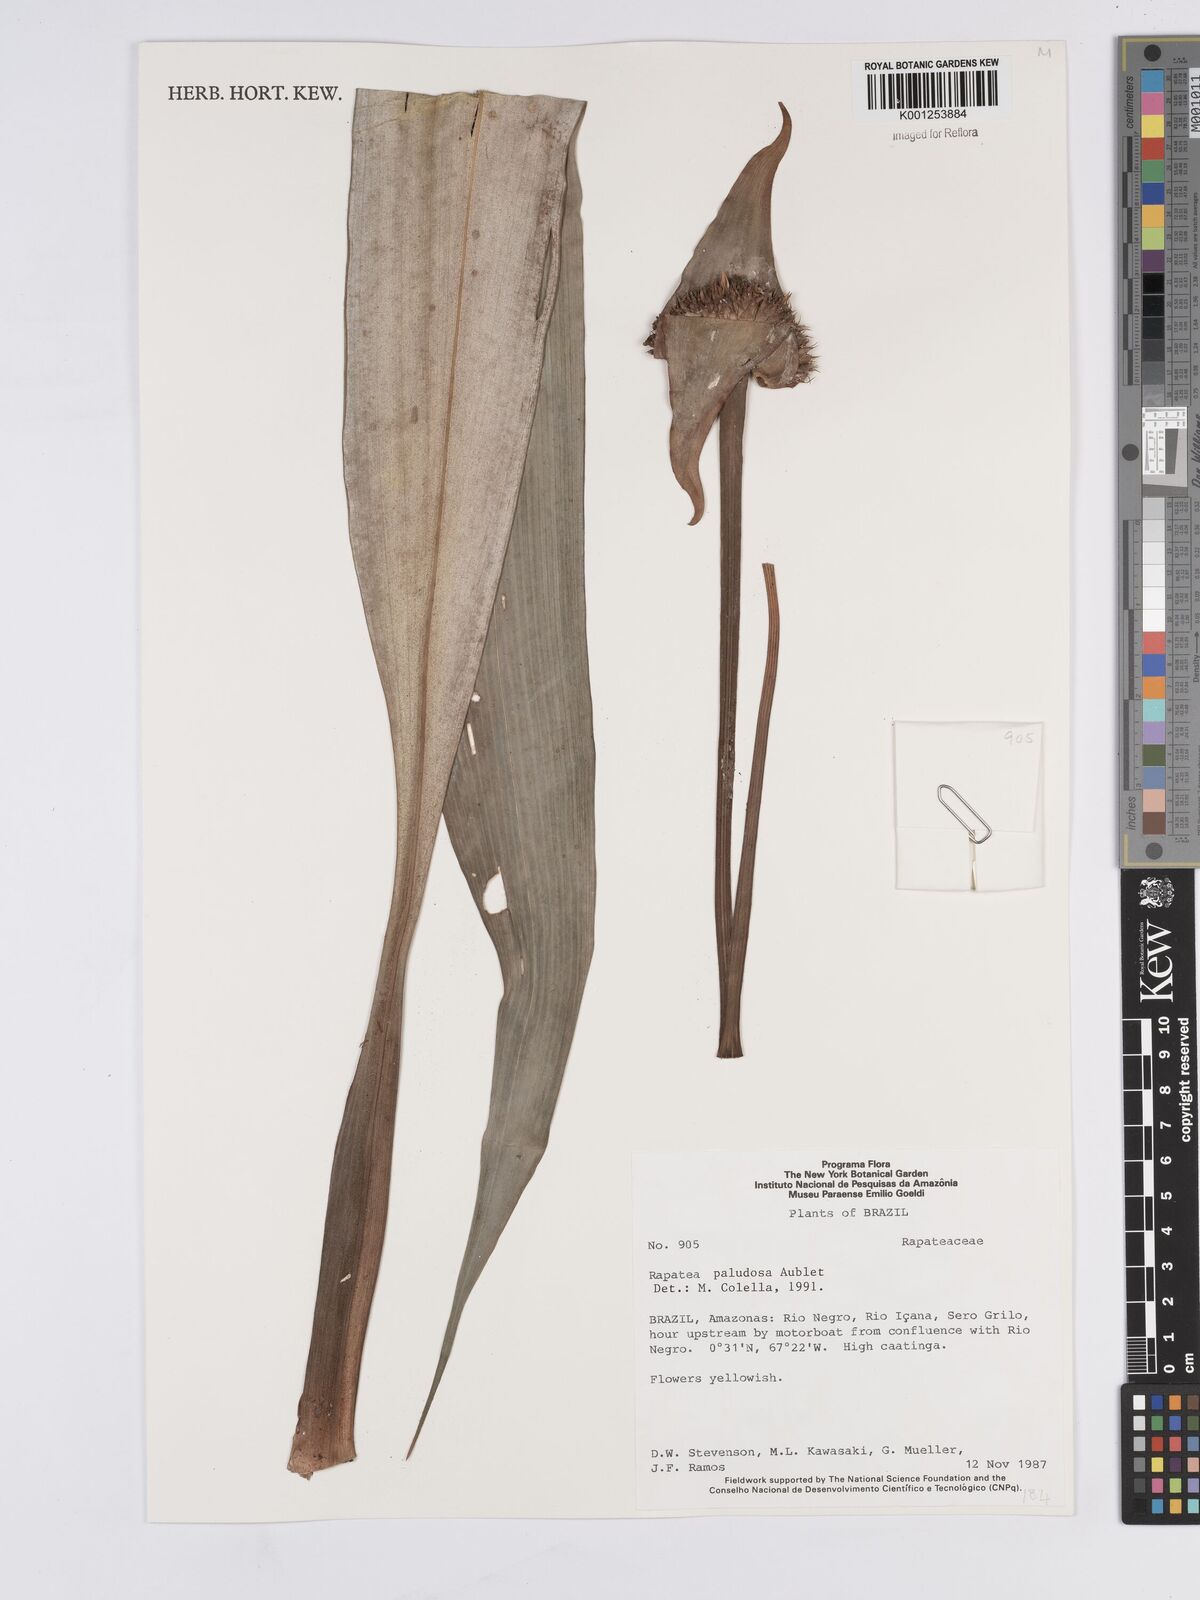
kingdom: Plantae
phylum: Tracheophyta
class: Liliopsida
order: Poales
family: Rapateaceae
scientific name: Rapateaceae
